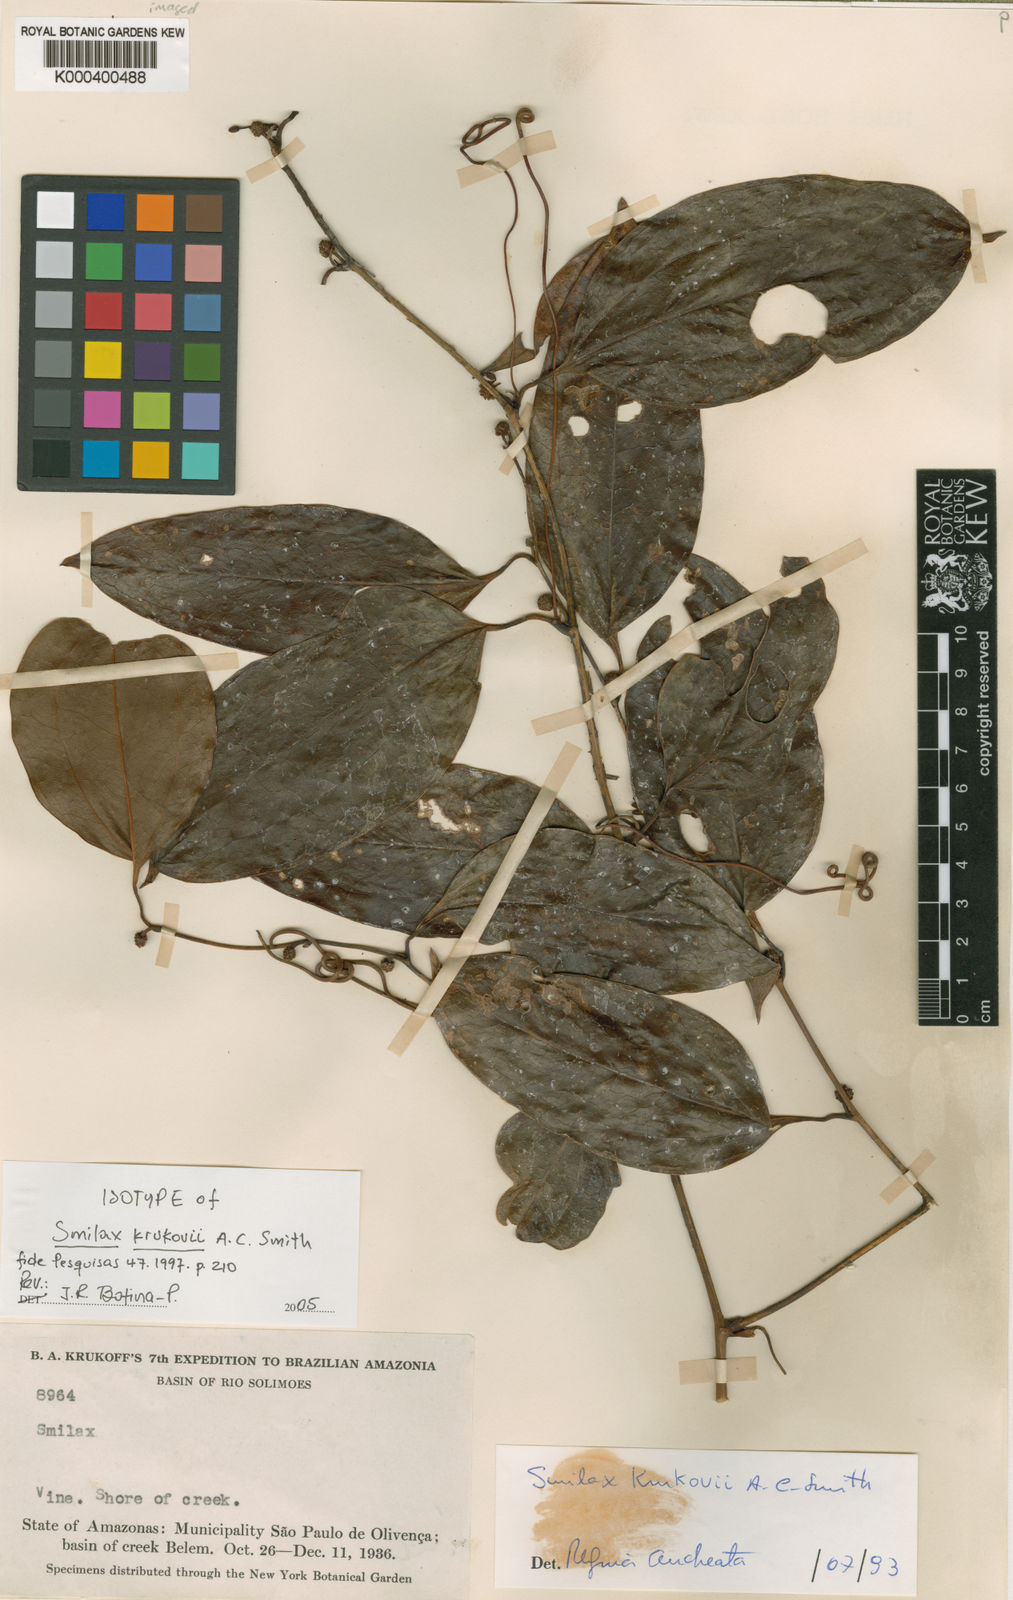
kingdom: Plantae
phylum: Tracheophyta
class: Liliopsida
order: Liliales
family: Smilacaceae
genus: Smilax
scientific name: Smilax domingensis
